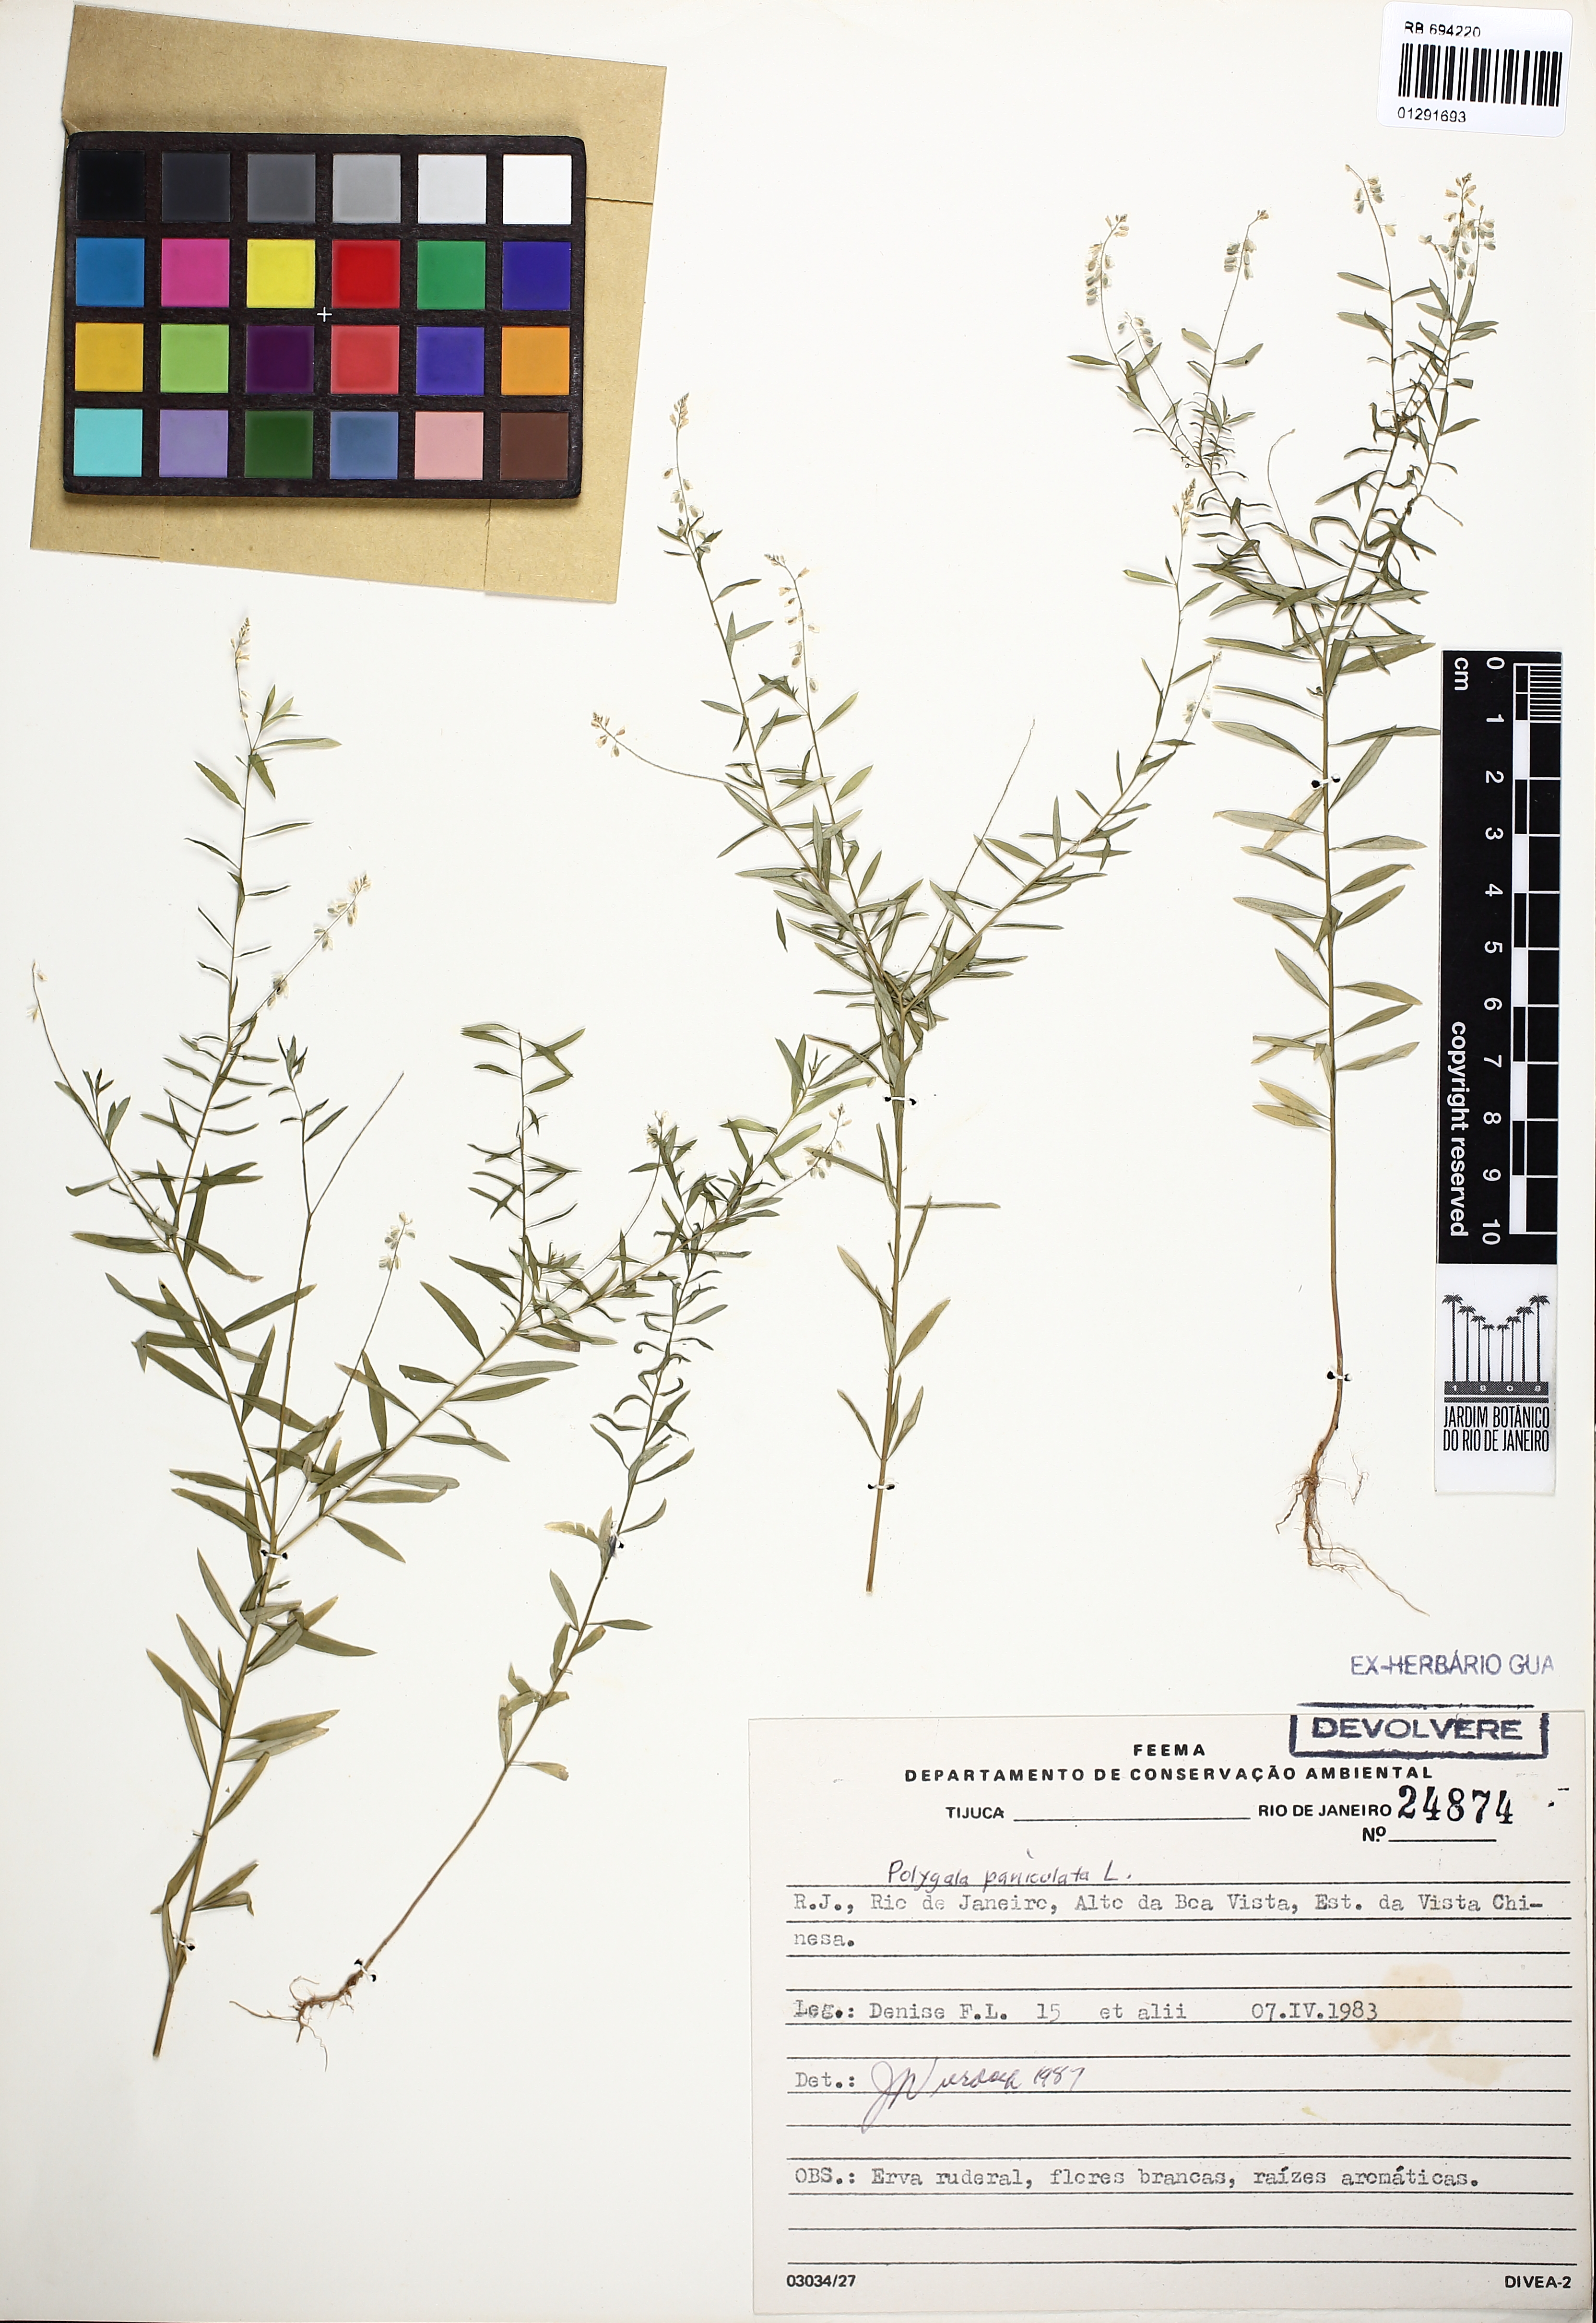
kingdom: Plantae
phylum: Tracheophyta
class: Magnoliopsida
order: Fabales
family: Polygalaceae
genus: Polygala
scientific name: Polygala paniculata
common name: Orosne
